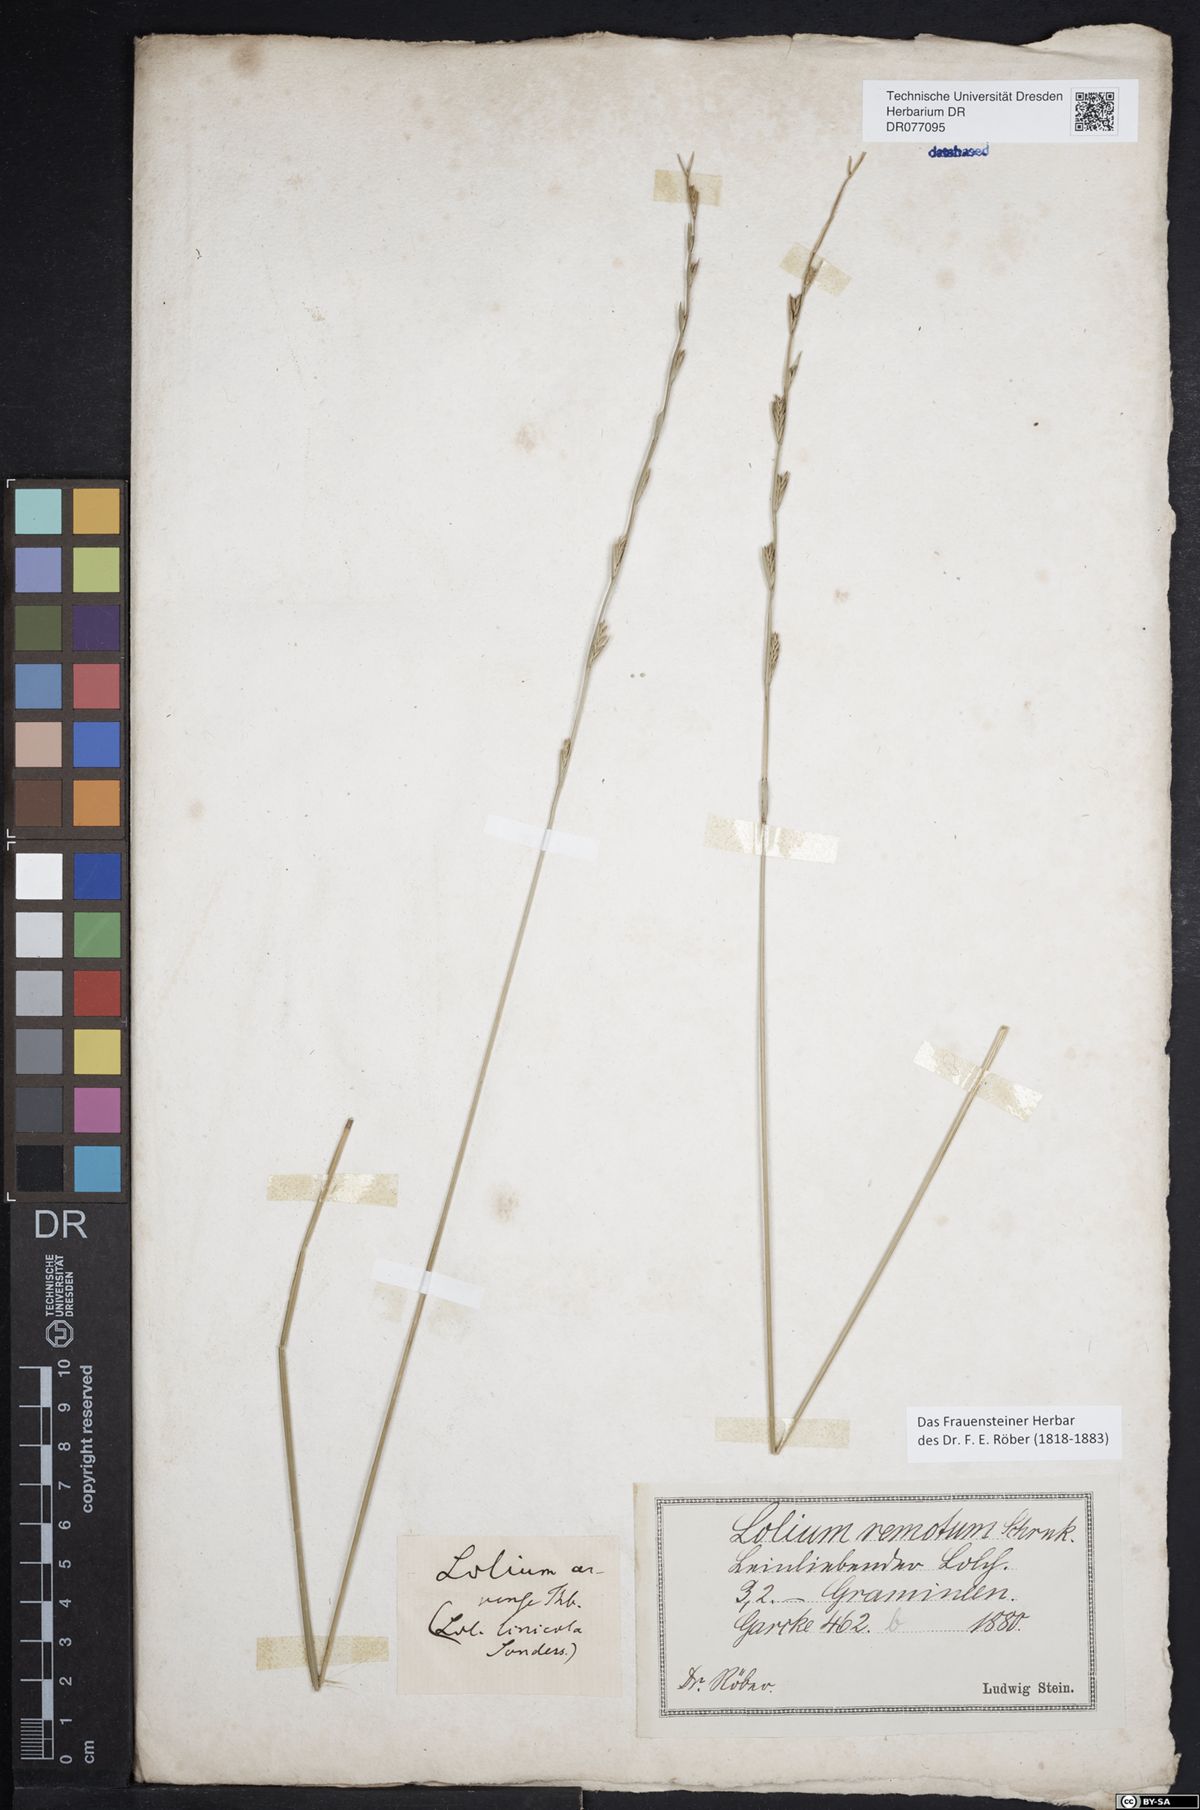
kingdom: Plantae
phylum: Tracheophyta
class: Liliopsida
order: Poales
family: Poaceae
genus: Lolium
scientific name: Lolium remotum
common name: Flaxfield rye-grass
